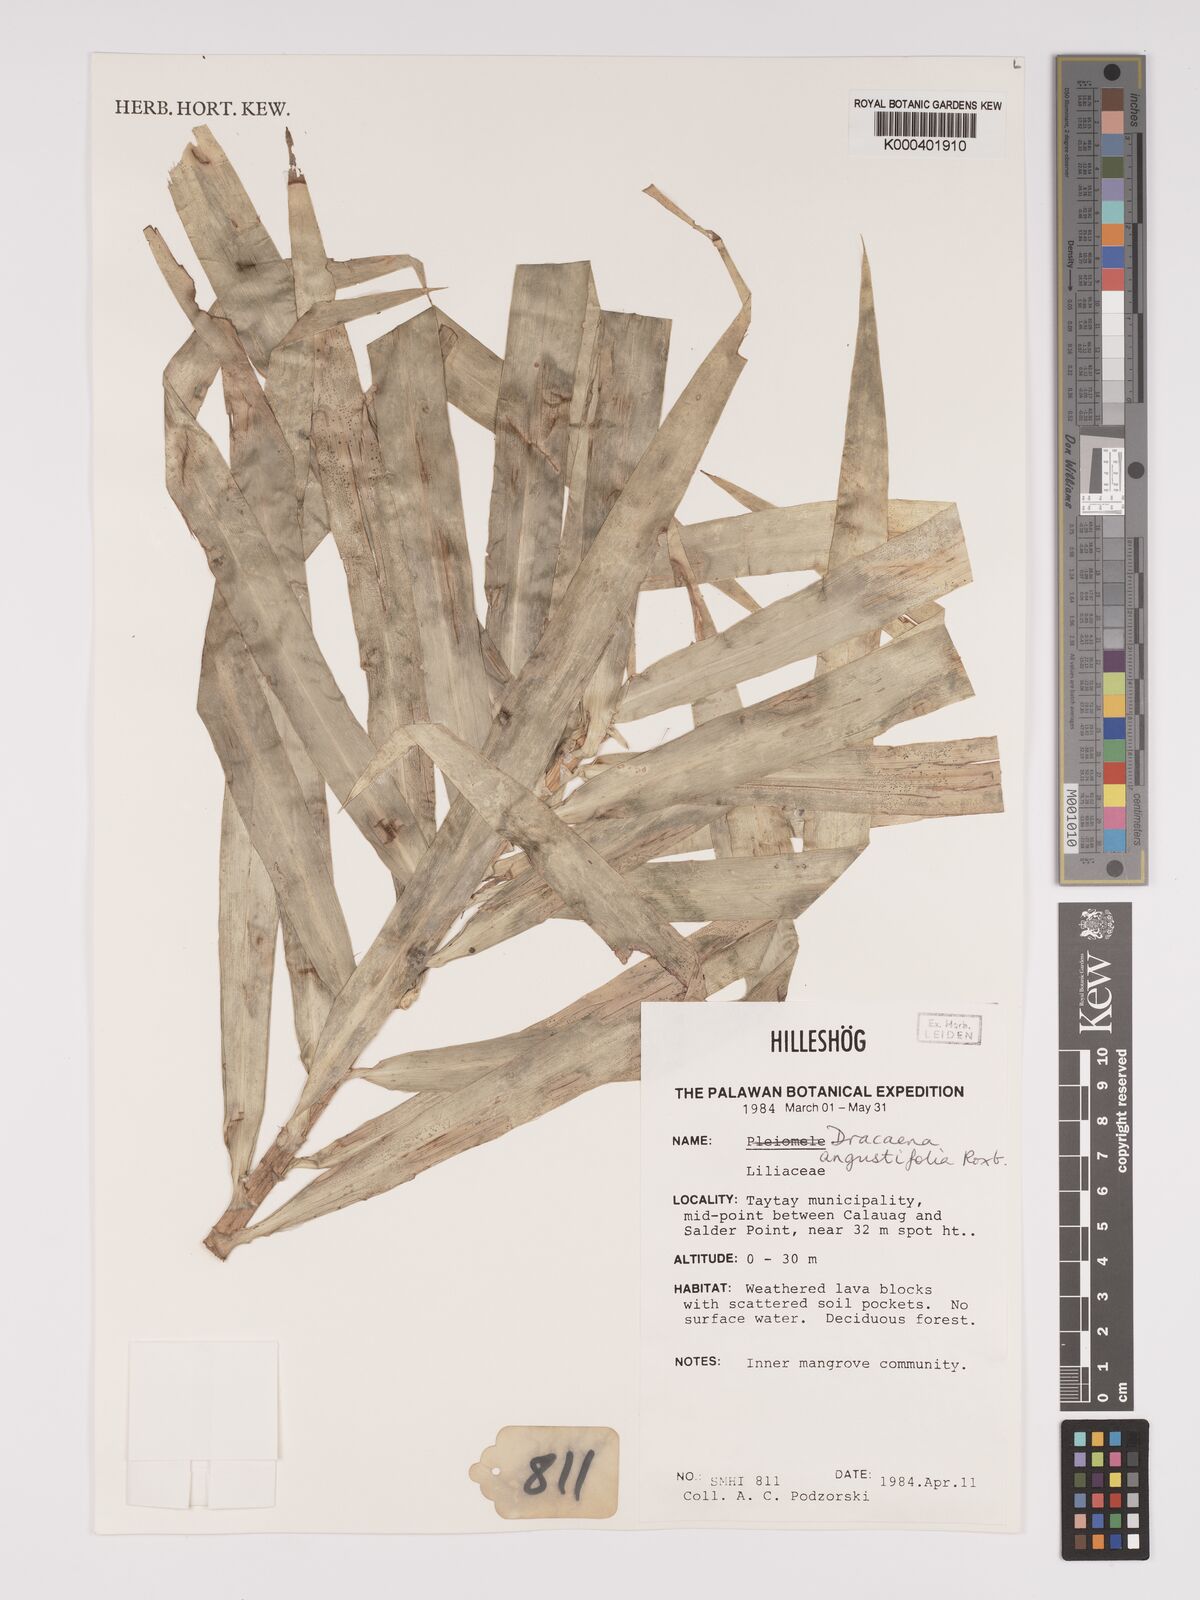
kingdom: Plantae
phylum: Tracheophyta
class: Liliopsida
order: Asparagales
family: Asparagaceae
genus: Dracaena
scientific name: Dracaena angustifolia
